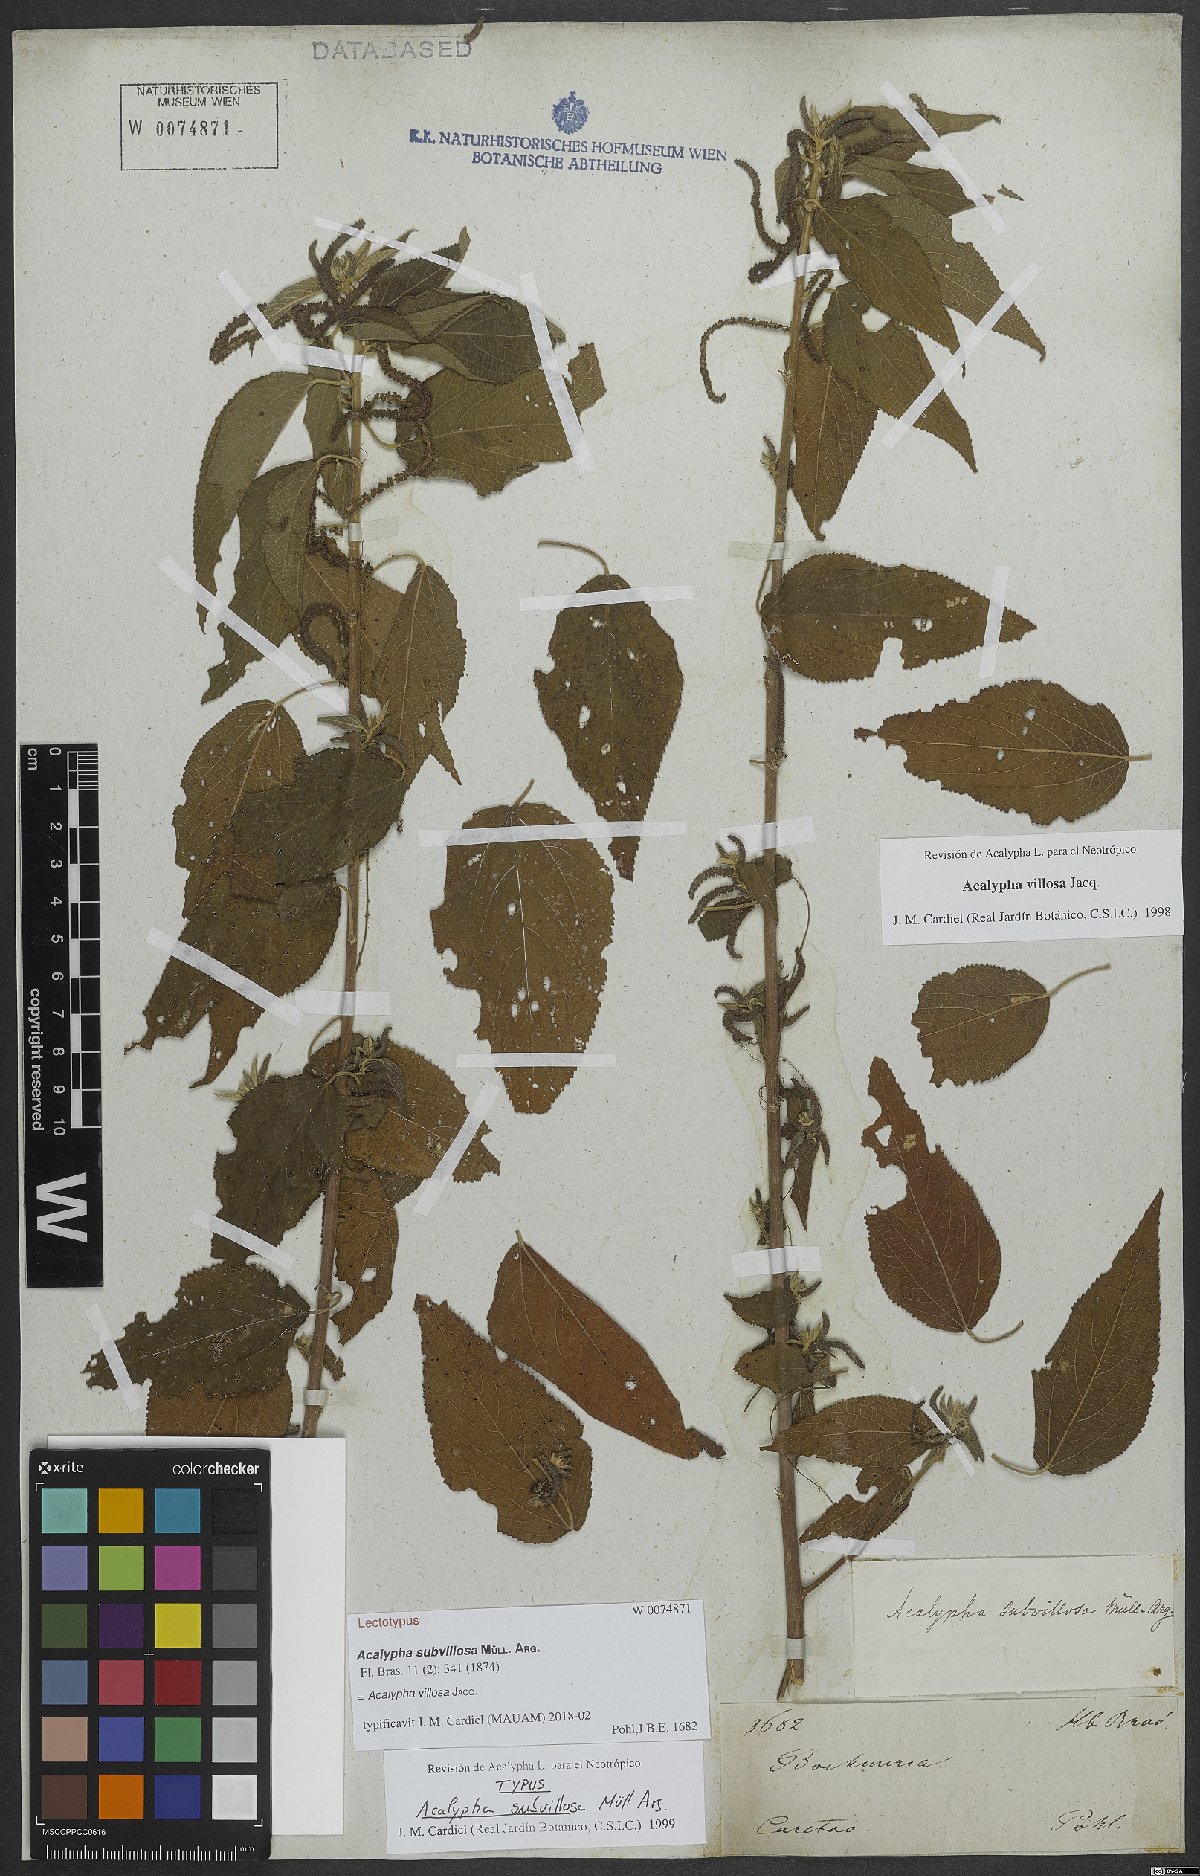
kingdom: Plantae
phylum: Tracheophyta
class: Magnoliopsida
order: Malpighiales
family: Euphorbiaceae
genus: Acalypha
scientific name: Acalypha villosa
